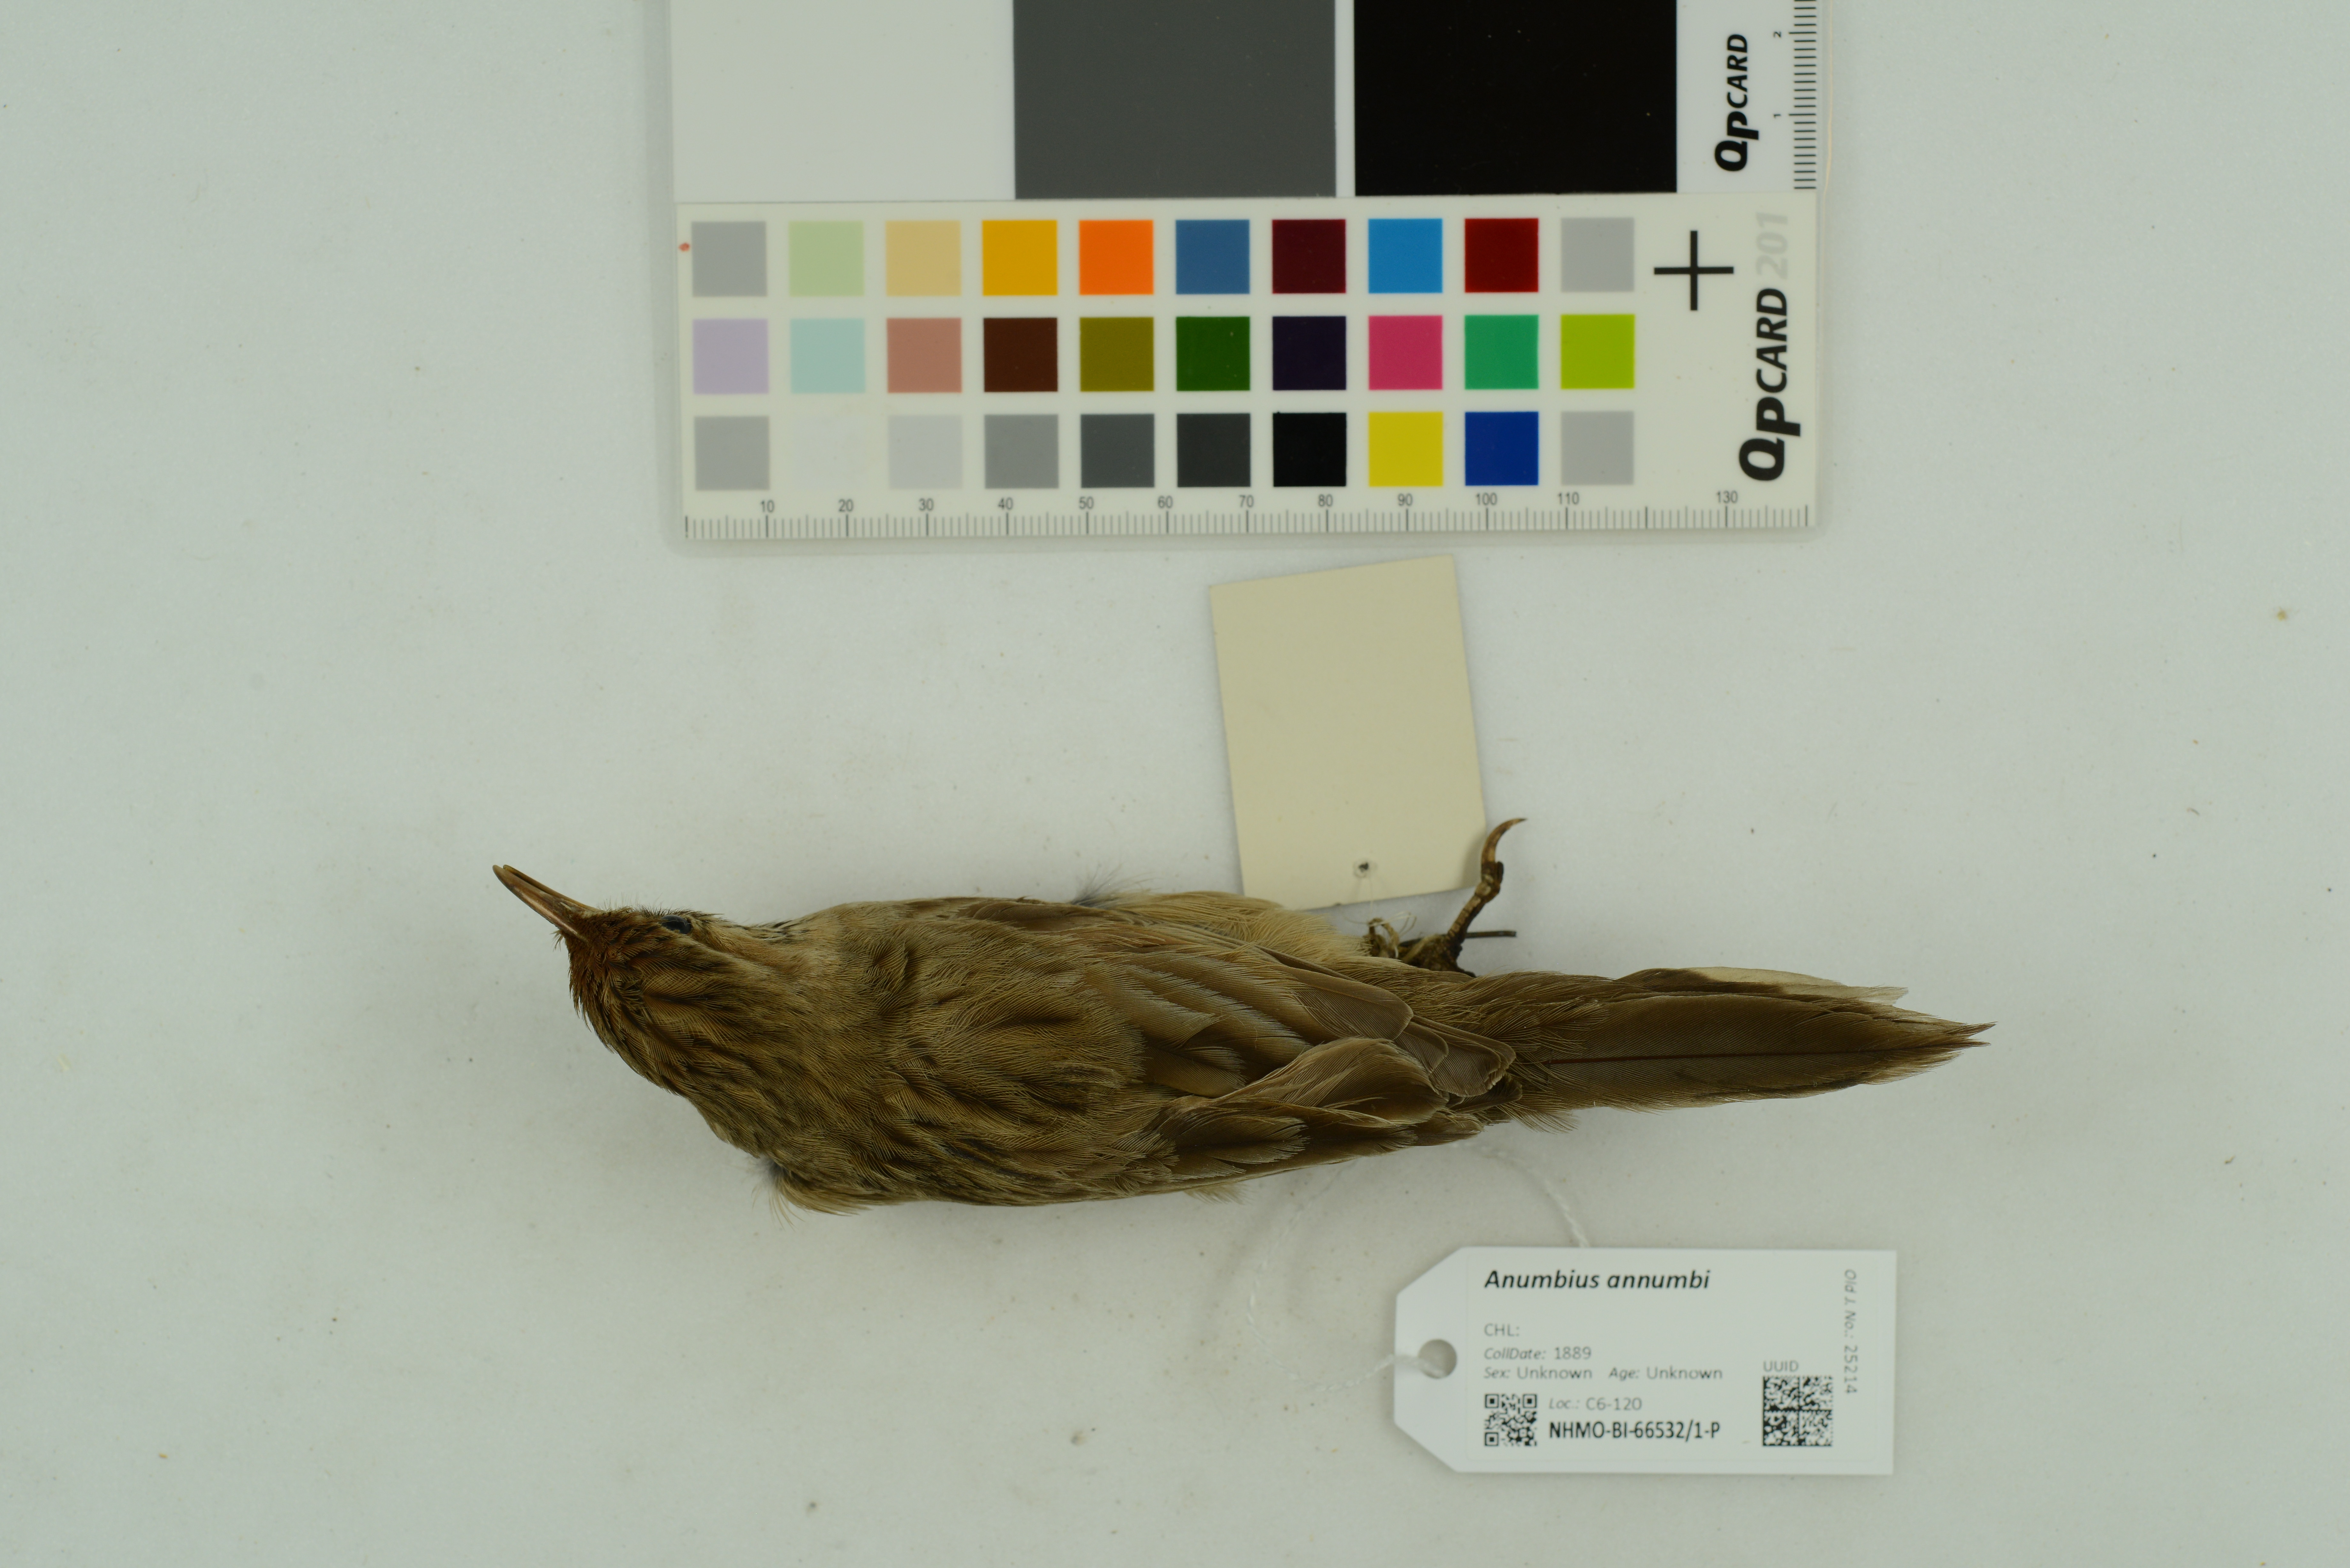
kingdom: Animalia
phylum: Chordata
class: Aves
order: Passeriformes
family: Furnariidae
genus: Anumbius
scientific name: Anumbius annumbi
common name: Firewood-gatherer
